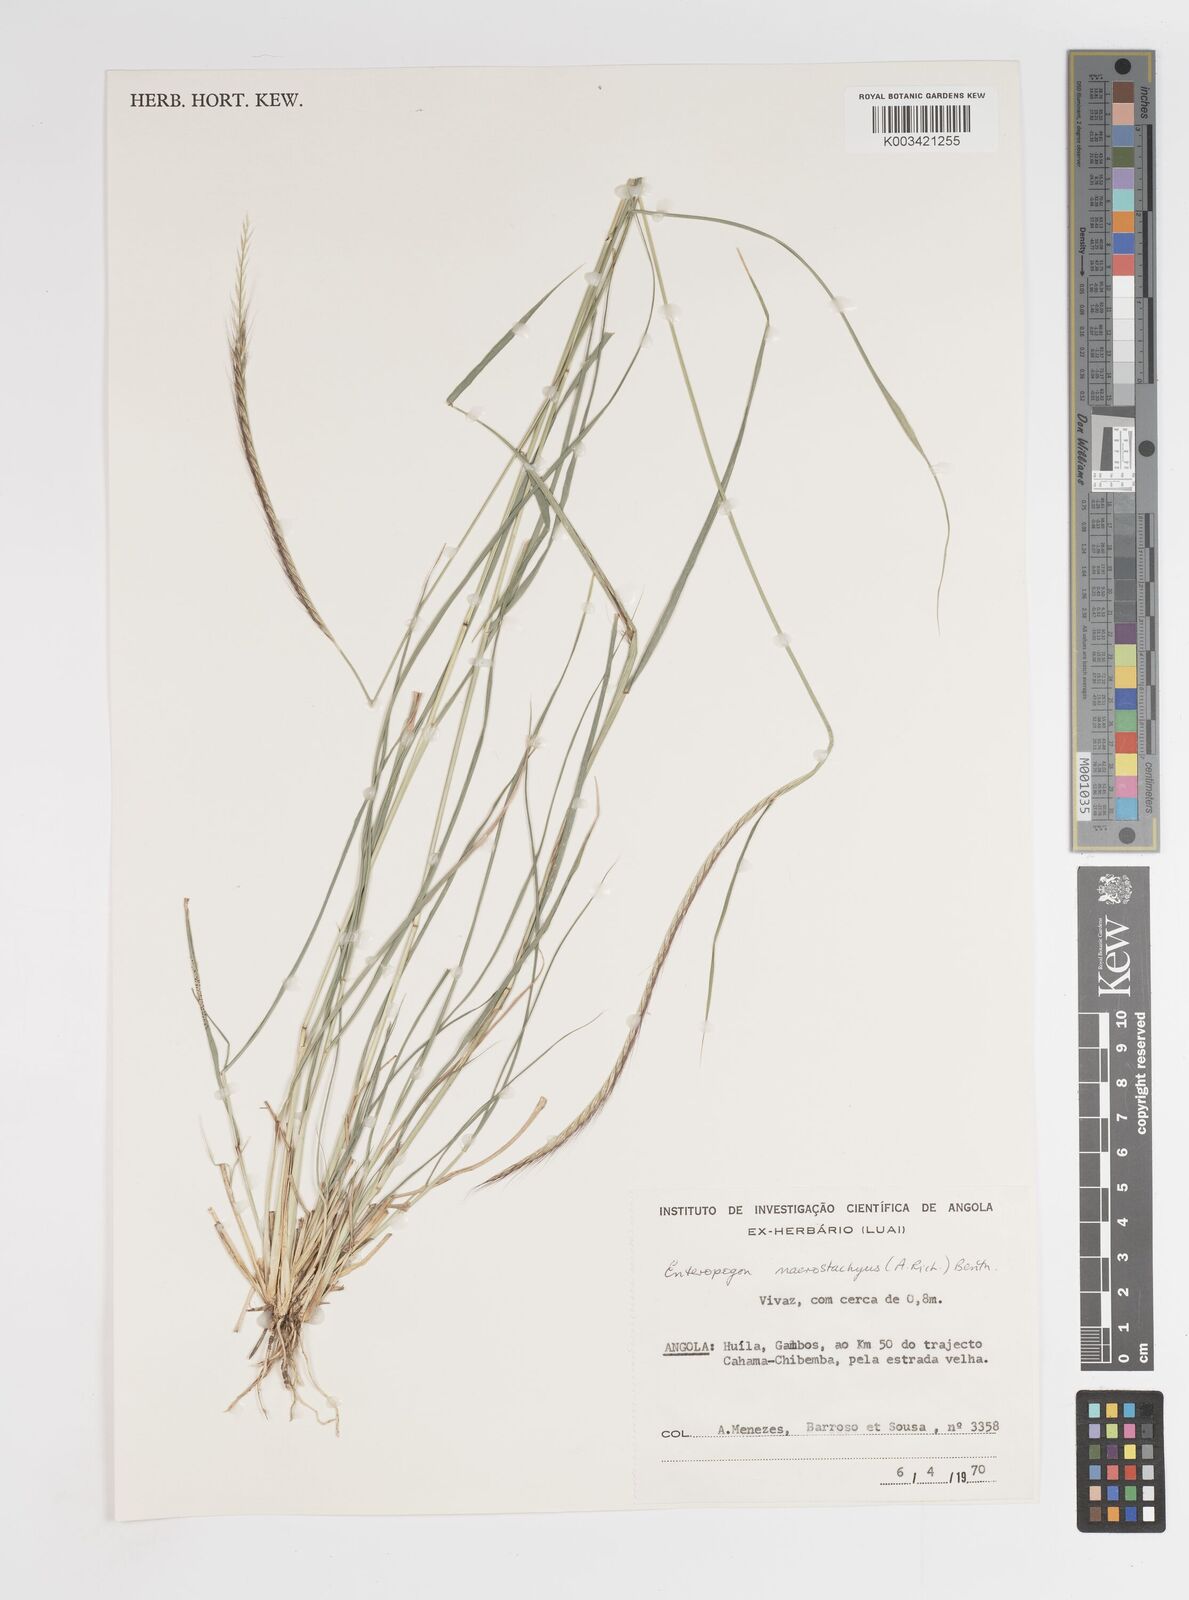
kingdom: Plantae
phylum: Tracheophyta
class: Liliopsida
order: Poales
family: Poaceae
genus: Enteropogon
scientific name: Enteropogon macrostachyus
